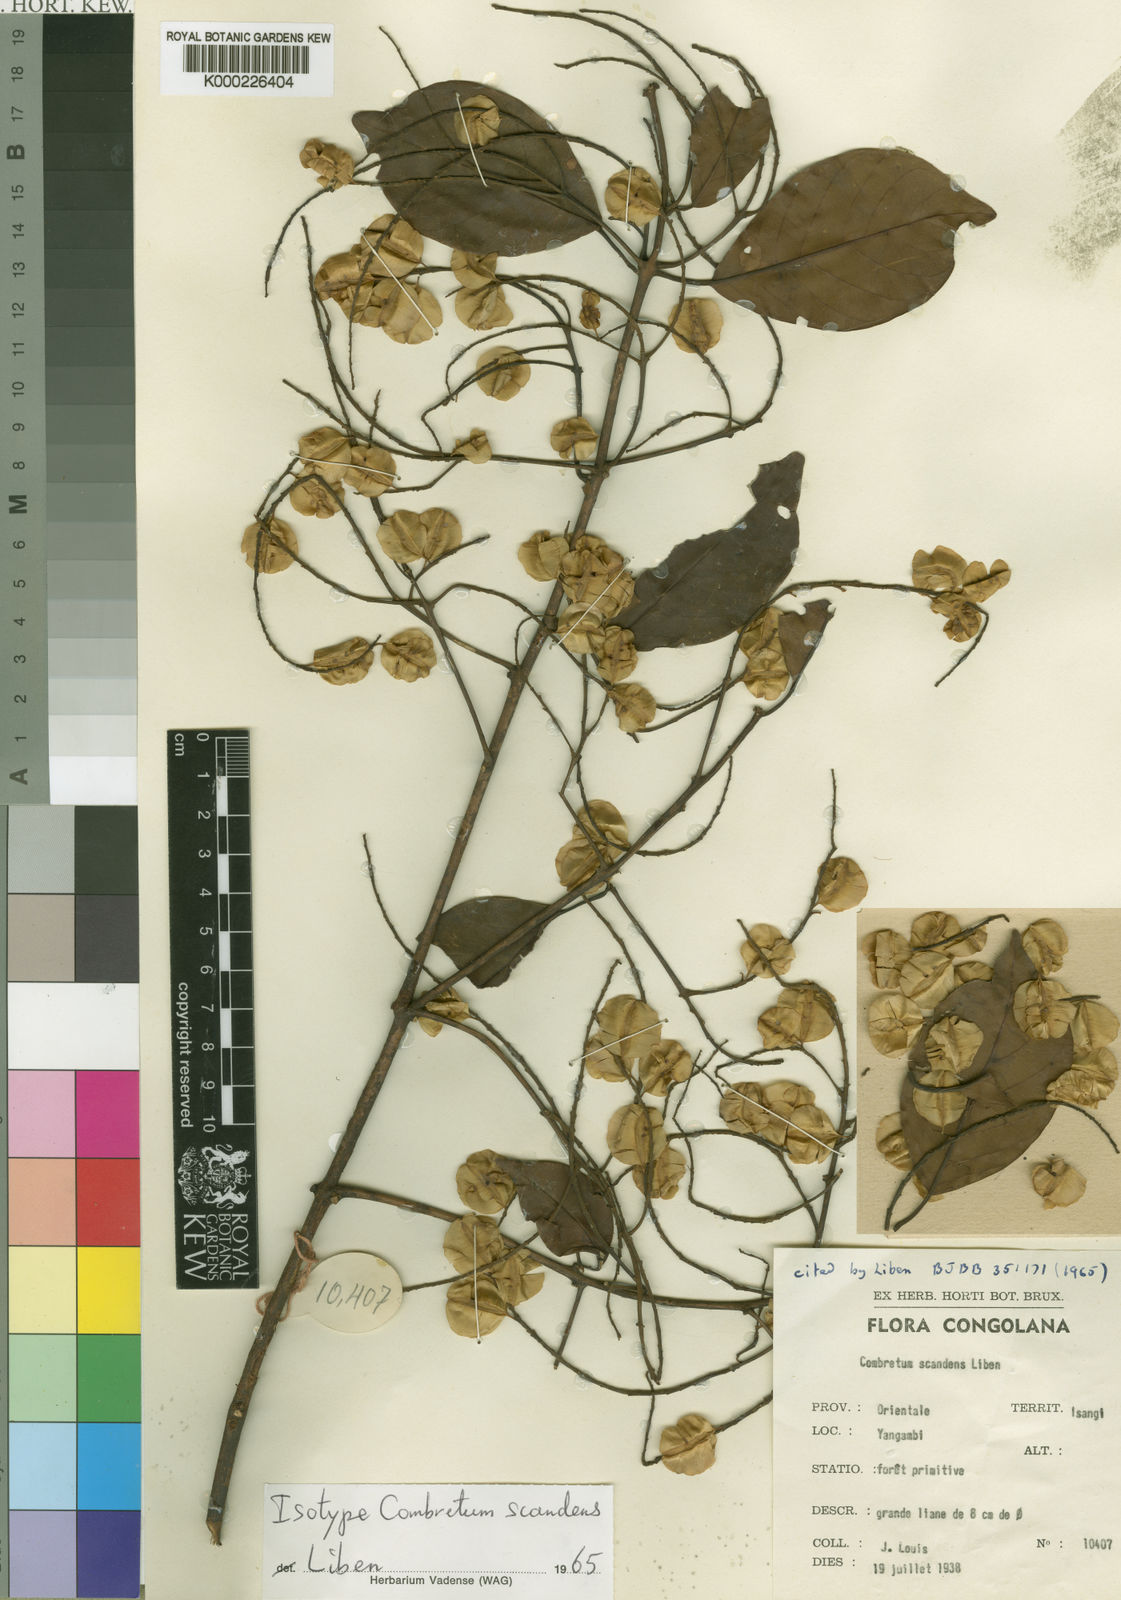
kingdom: Plantae
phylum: Tracheophyta
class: Magnoliopsida
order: Myrtales
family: Combretaceae
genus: Combretum
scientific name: Combretum scandens
